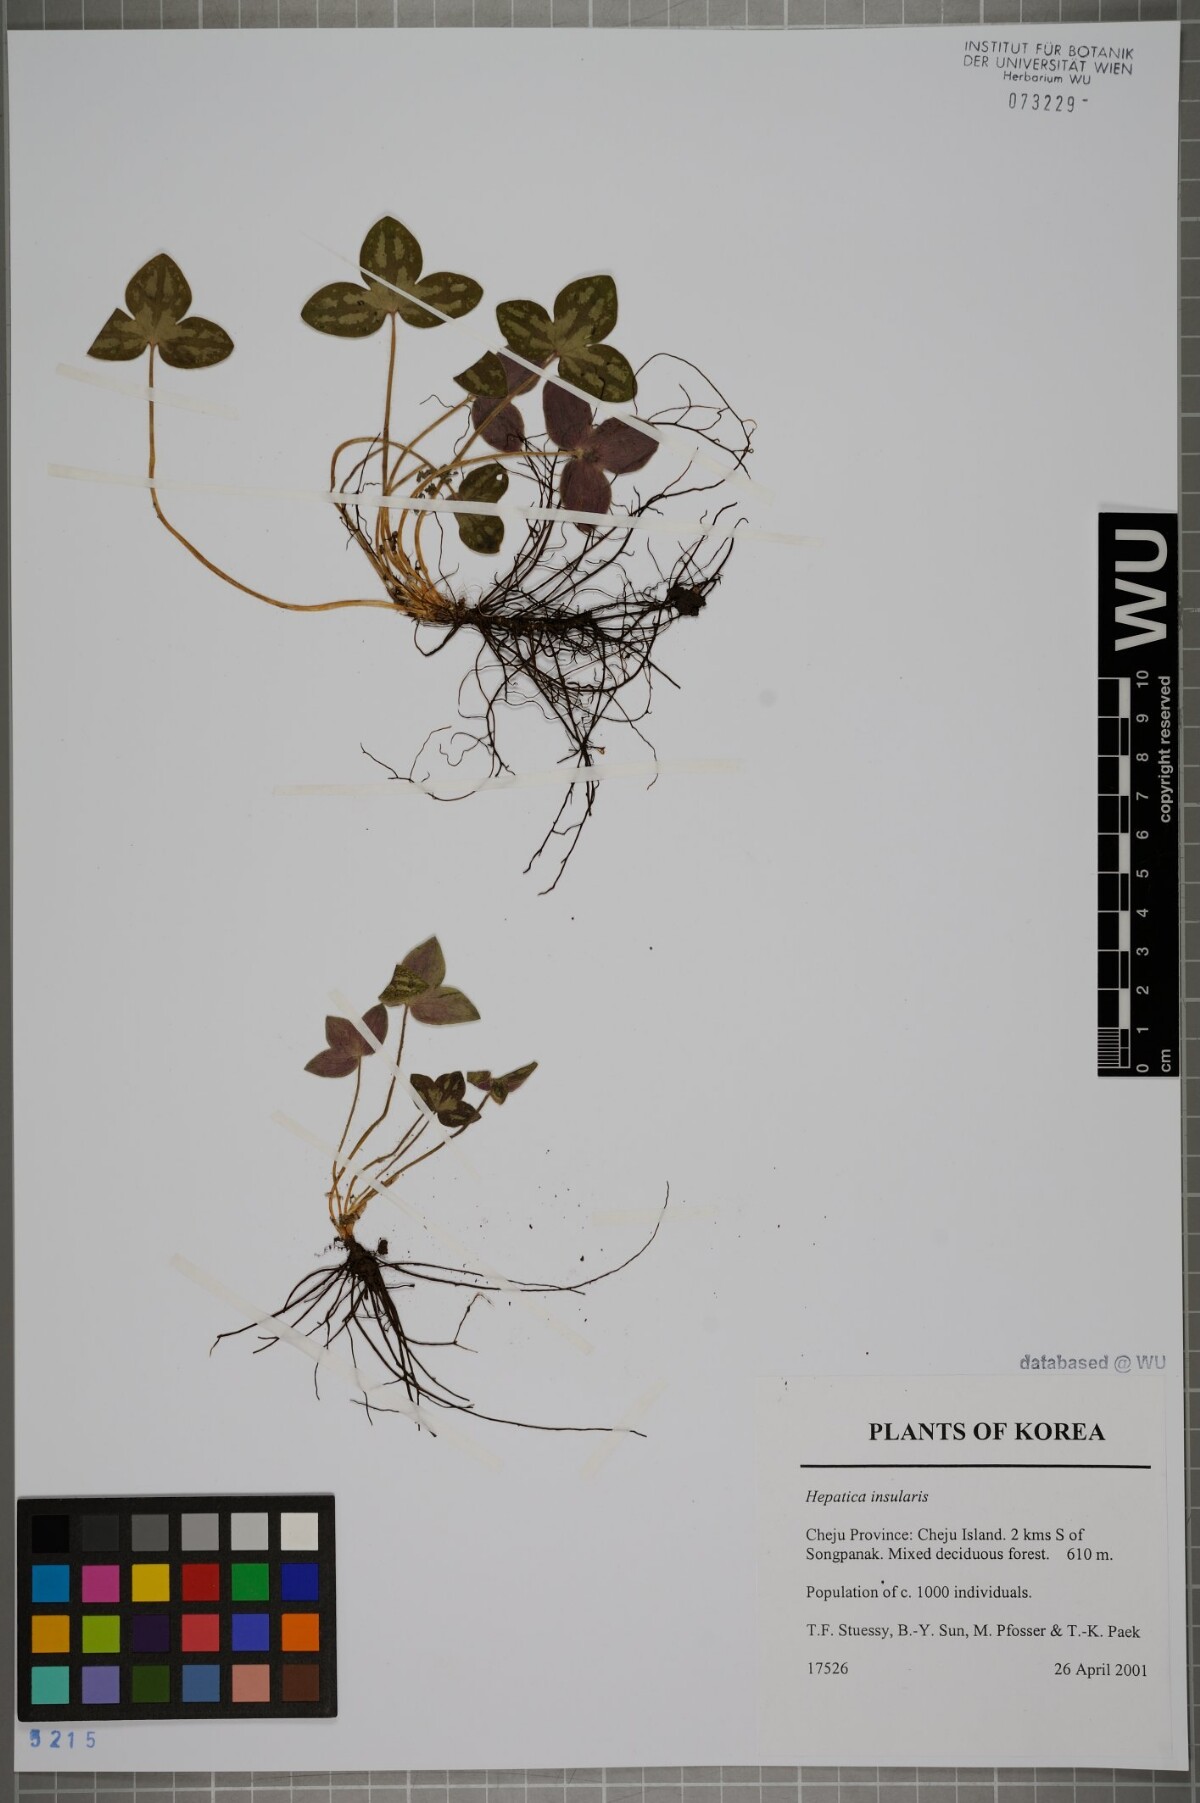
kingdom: Plantae
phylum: Tracheophyta
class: Magnoliopsida
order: Ranunculales
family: Ranunculaceae
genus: Hepatica
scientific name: Hepatica insularis
